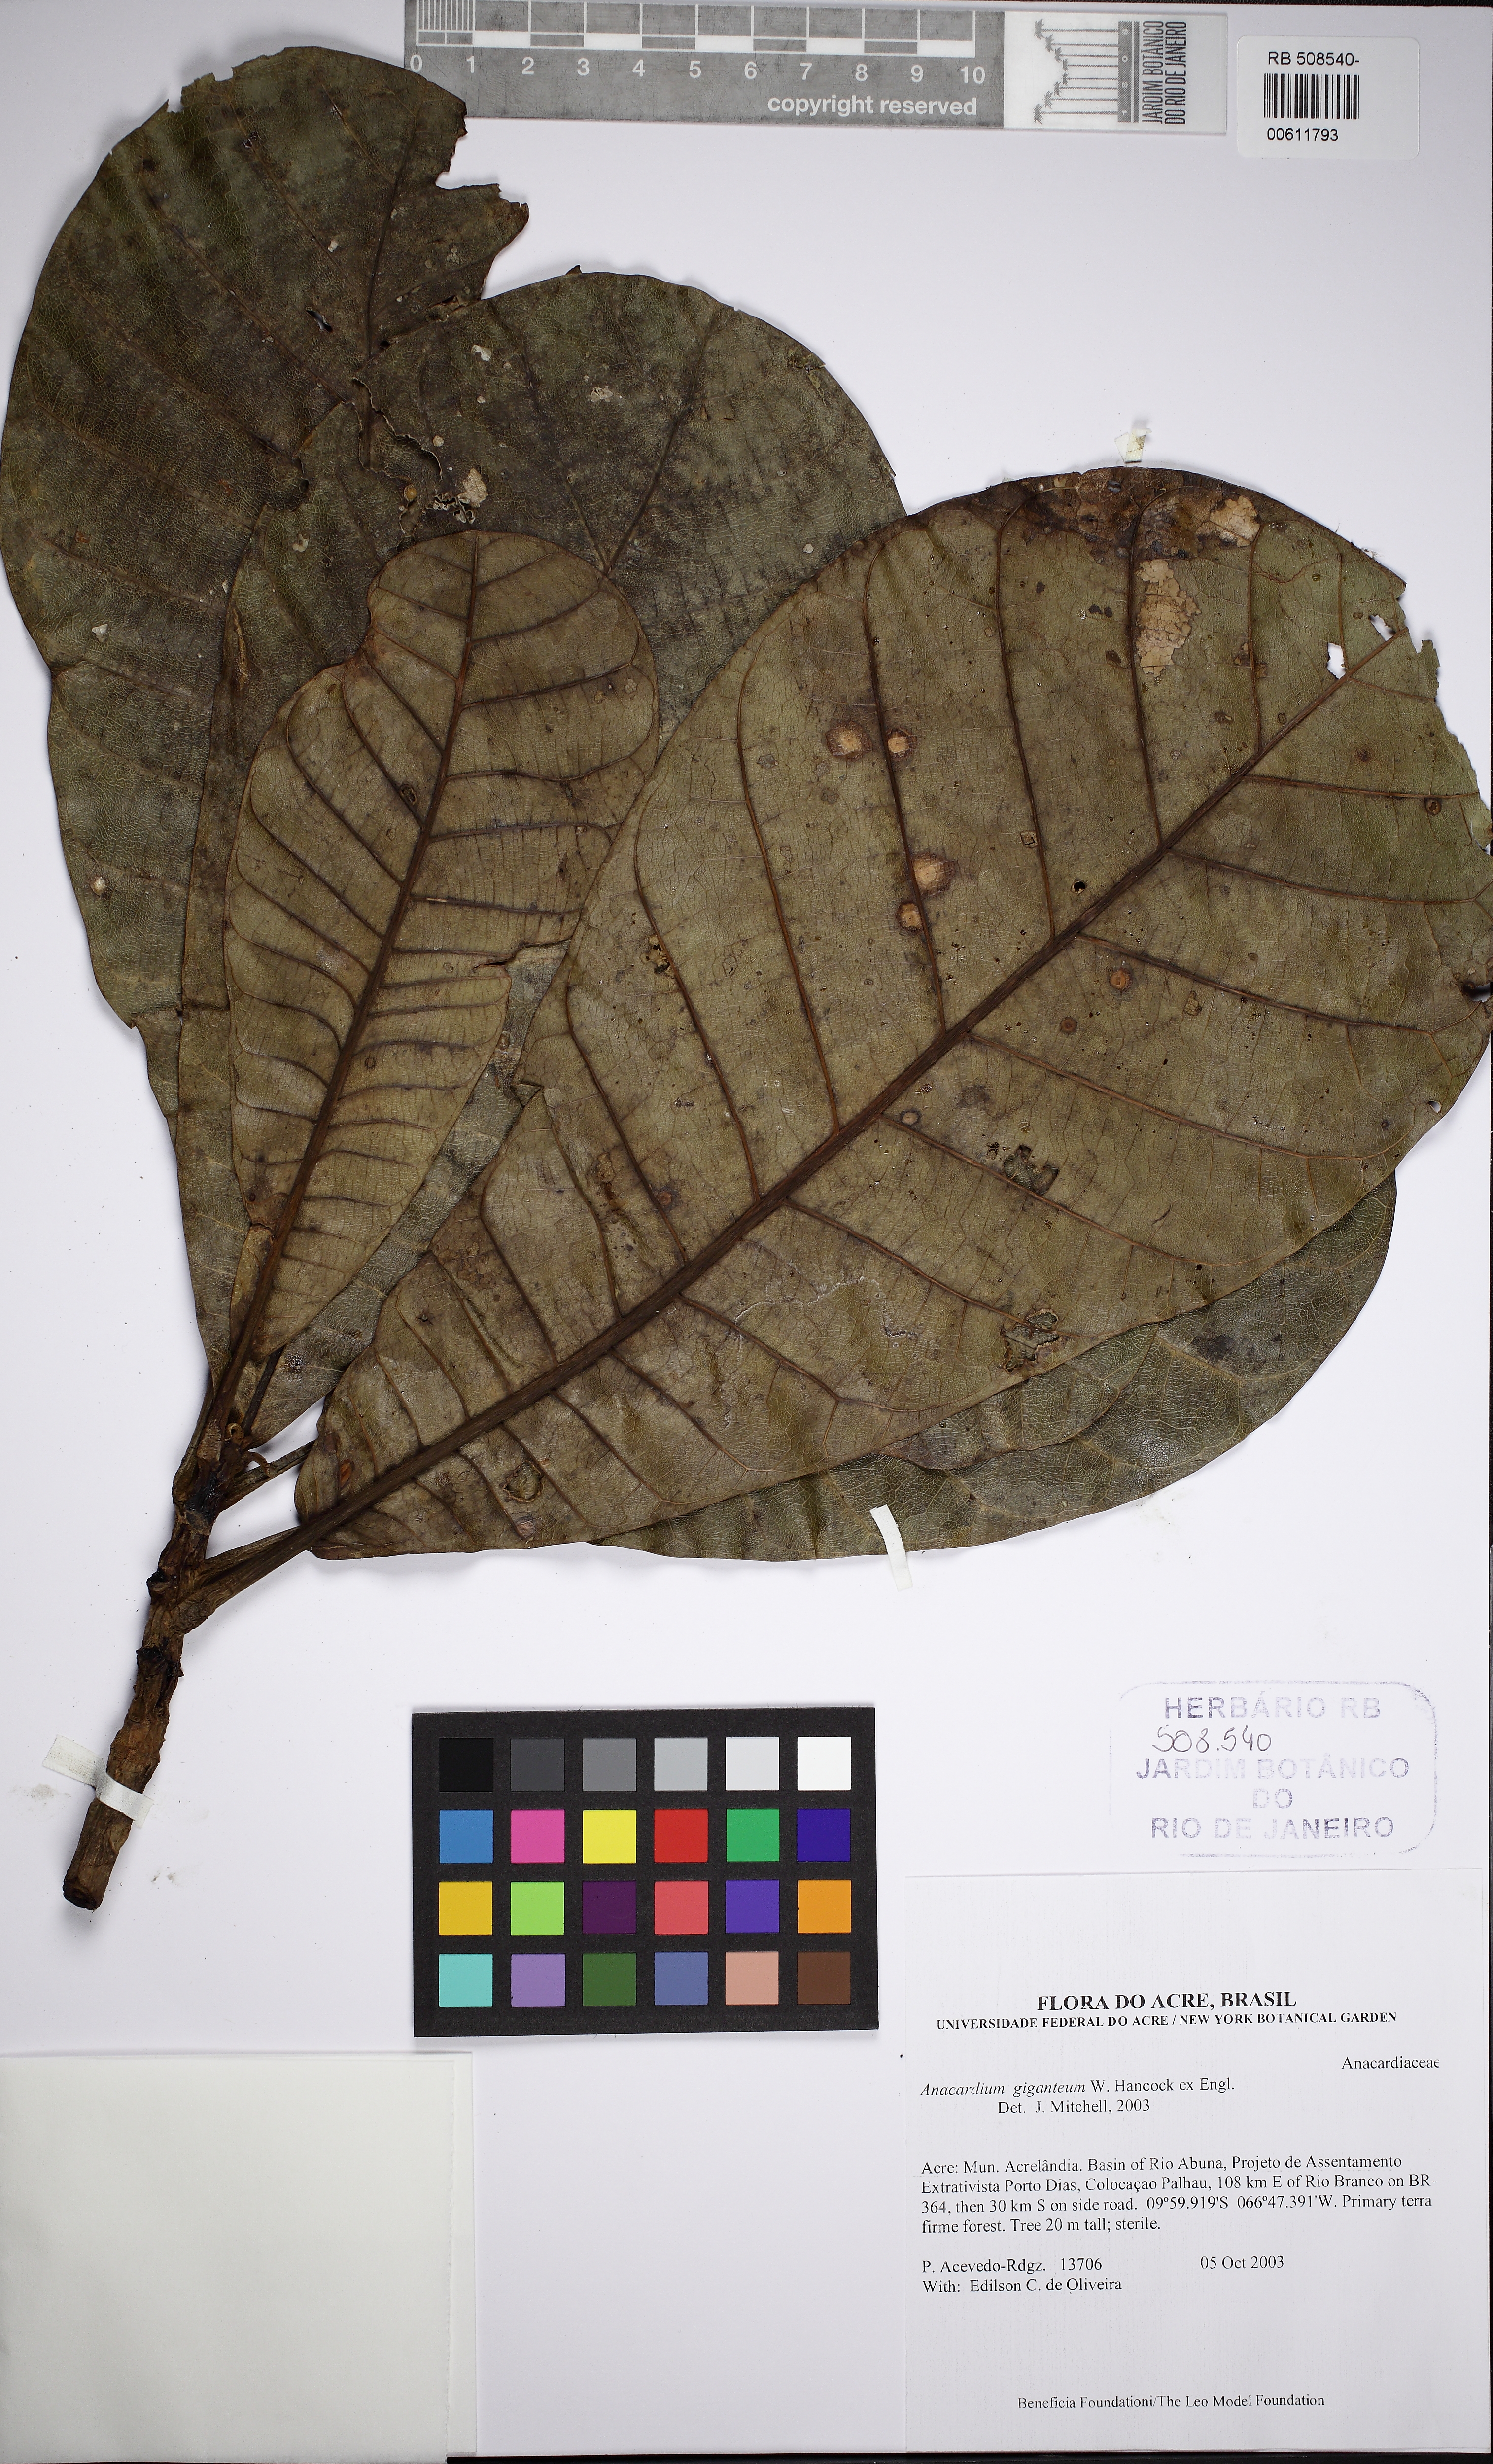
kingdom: Plantae
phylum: Tracheophyta
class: Magnoliopsida
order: Sapindales
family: Anacardiaceae
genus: Anacardium
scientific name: Anacardium giganteum
